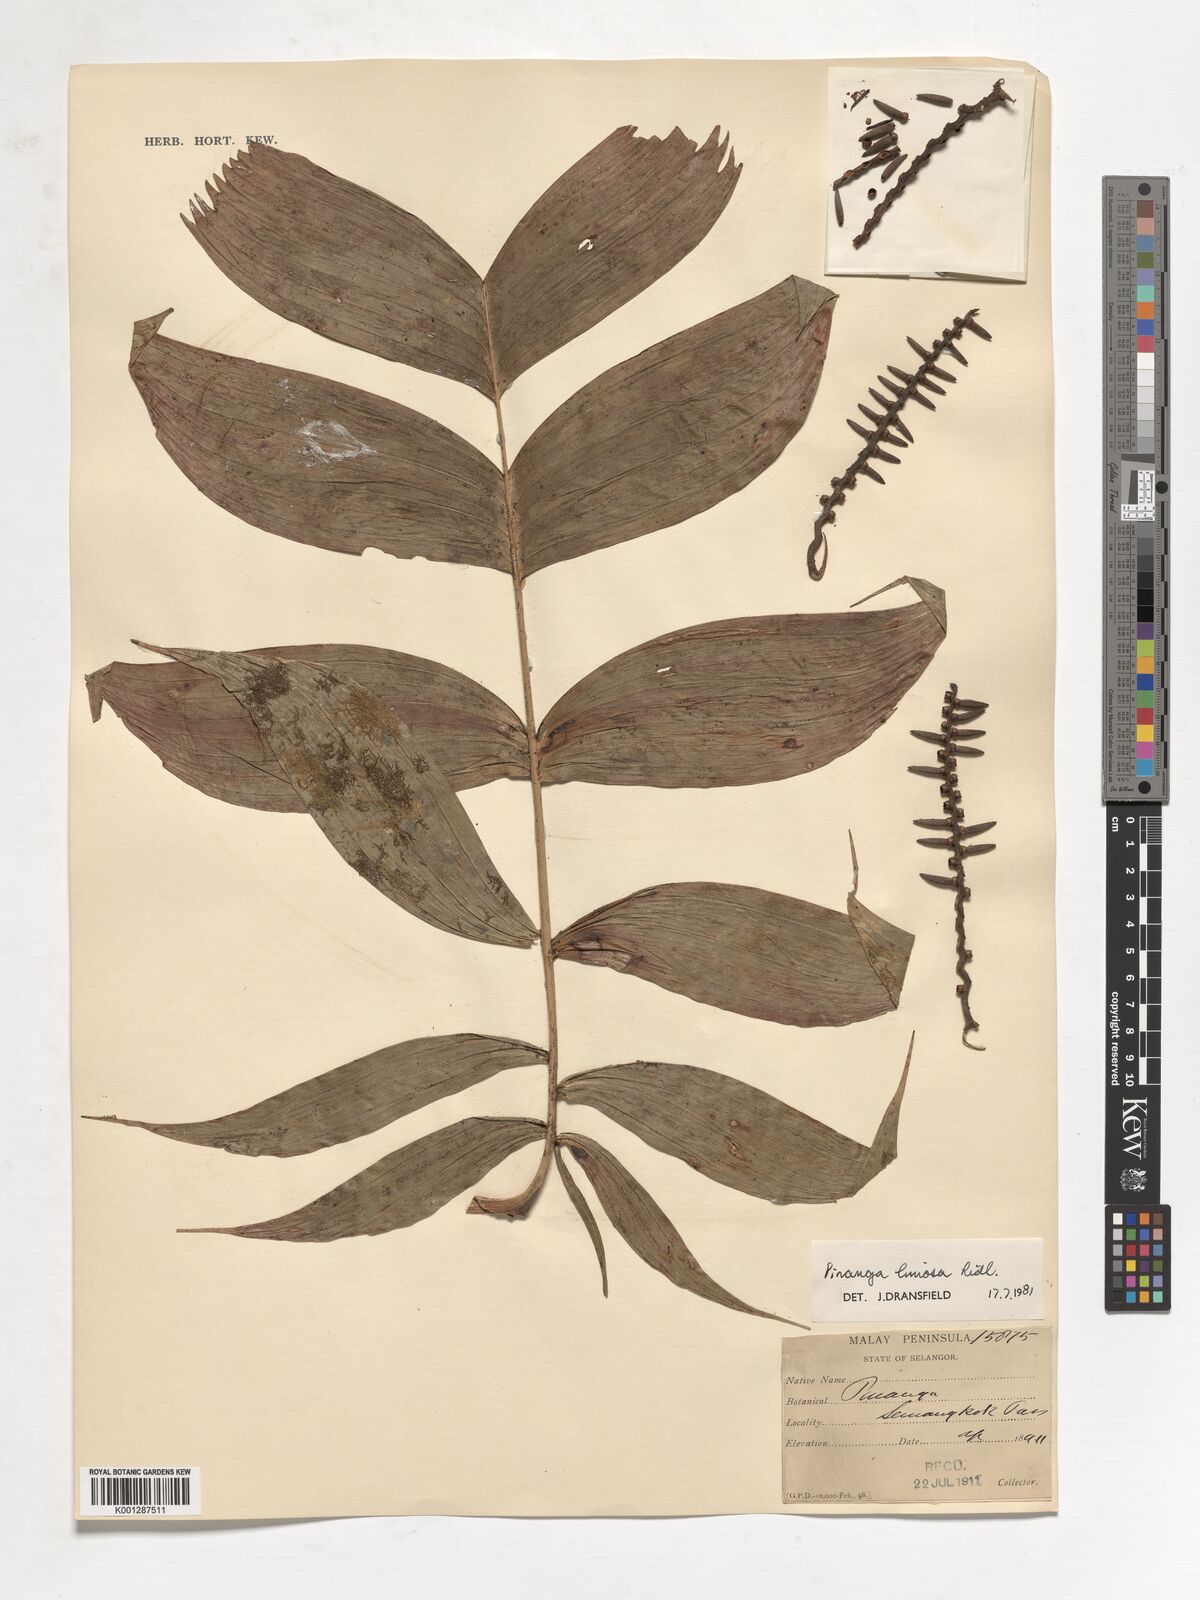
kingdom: Plantae
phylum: Tracheophyta
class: Liliopsida
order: Arecales
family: Arecaceae
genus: Pinanga
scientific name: Pinanga limosa
